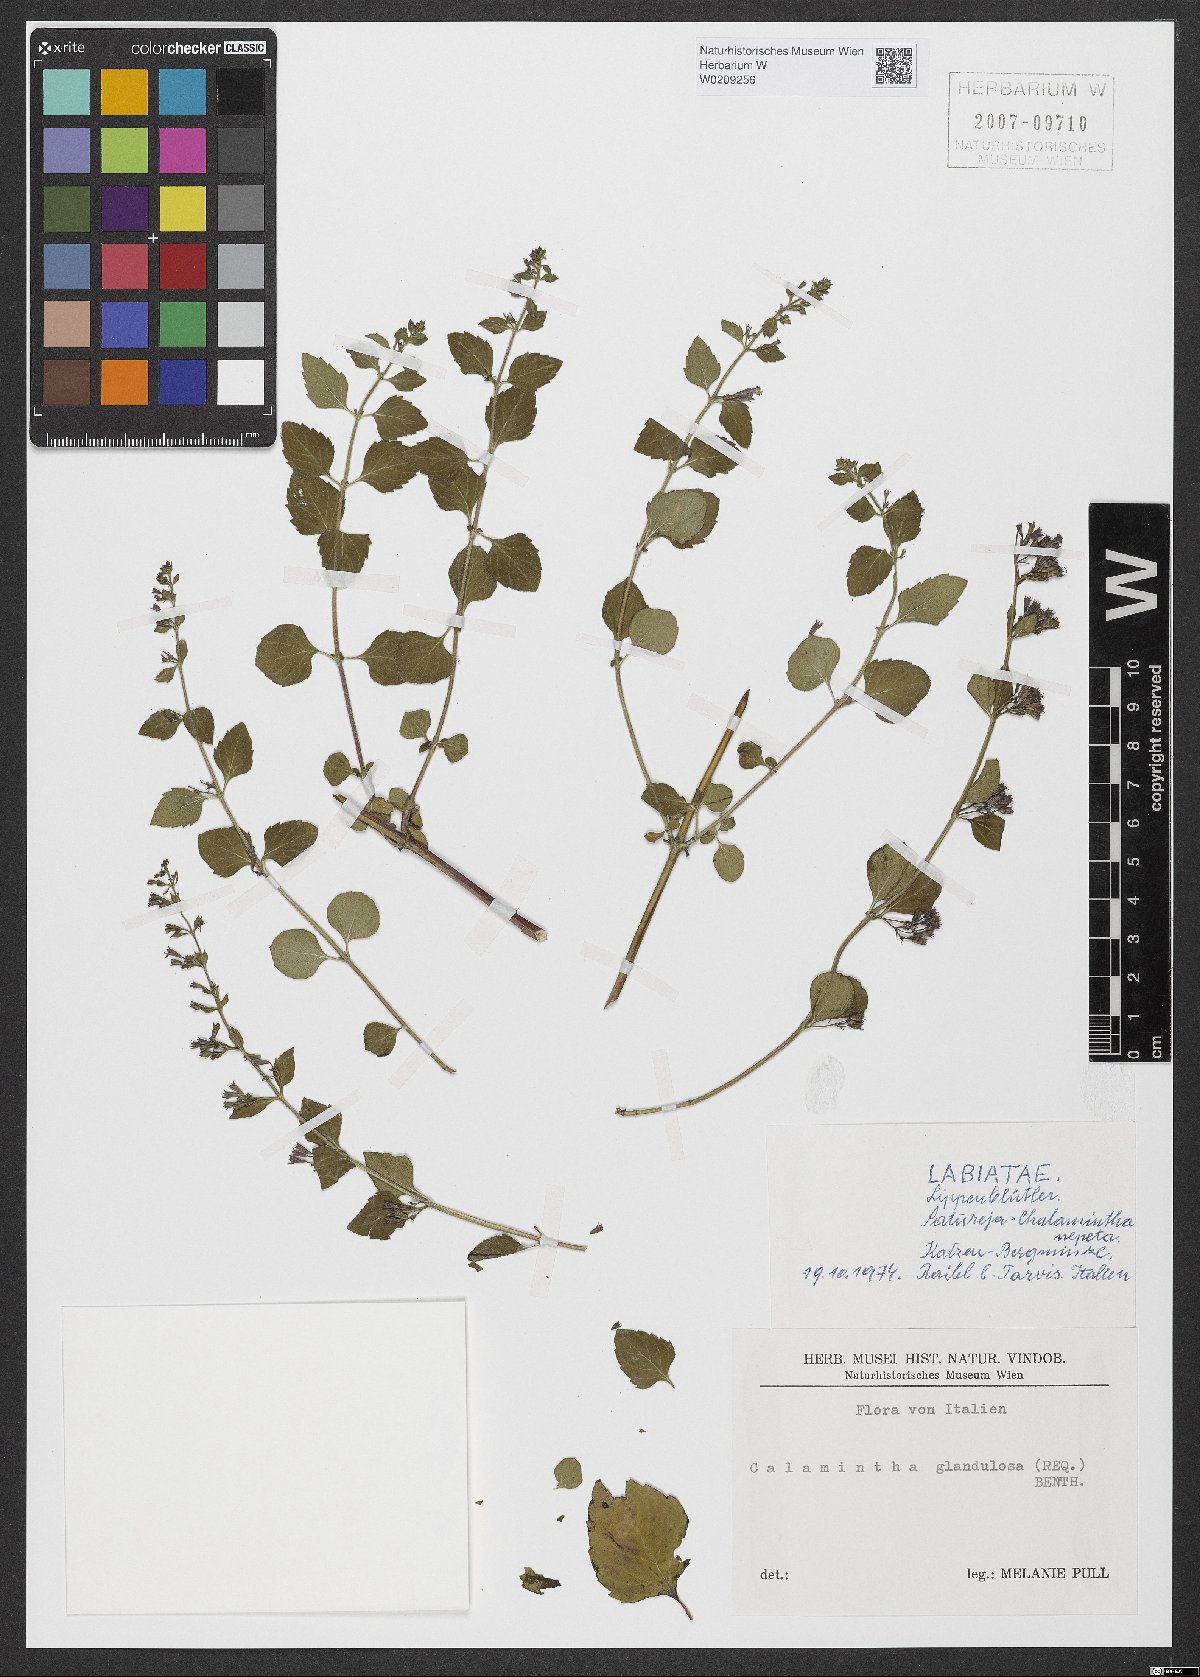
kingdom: Plantae
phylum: Tracheophyta
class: Magnoliopsida
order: Lamiales
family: Lamiaceae
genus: Clinopodium
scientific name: Clinopodium nepeta
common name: Lesser calamint
